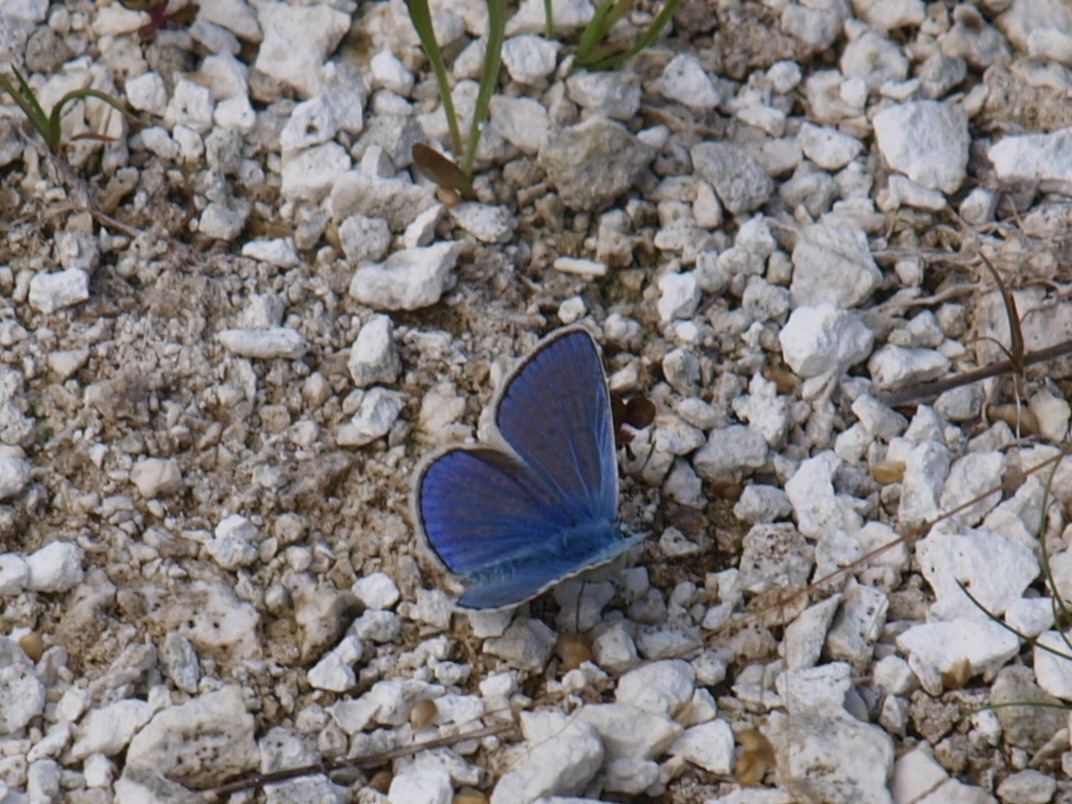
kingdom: Animalia
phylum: Arthropoda
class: Insecta
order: Lepidoptera
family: Lycaenidae
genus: Polyommatus
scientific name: Polyommatus icarus
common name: Almindelig blåfugl
